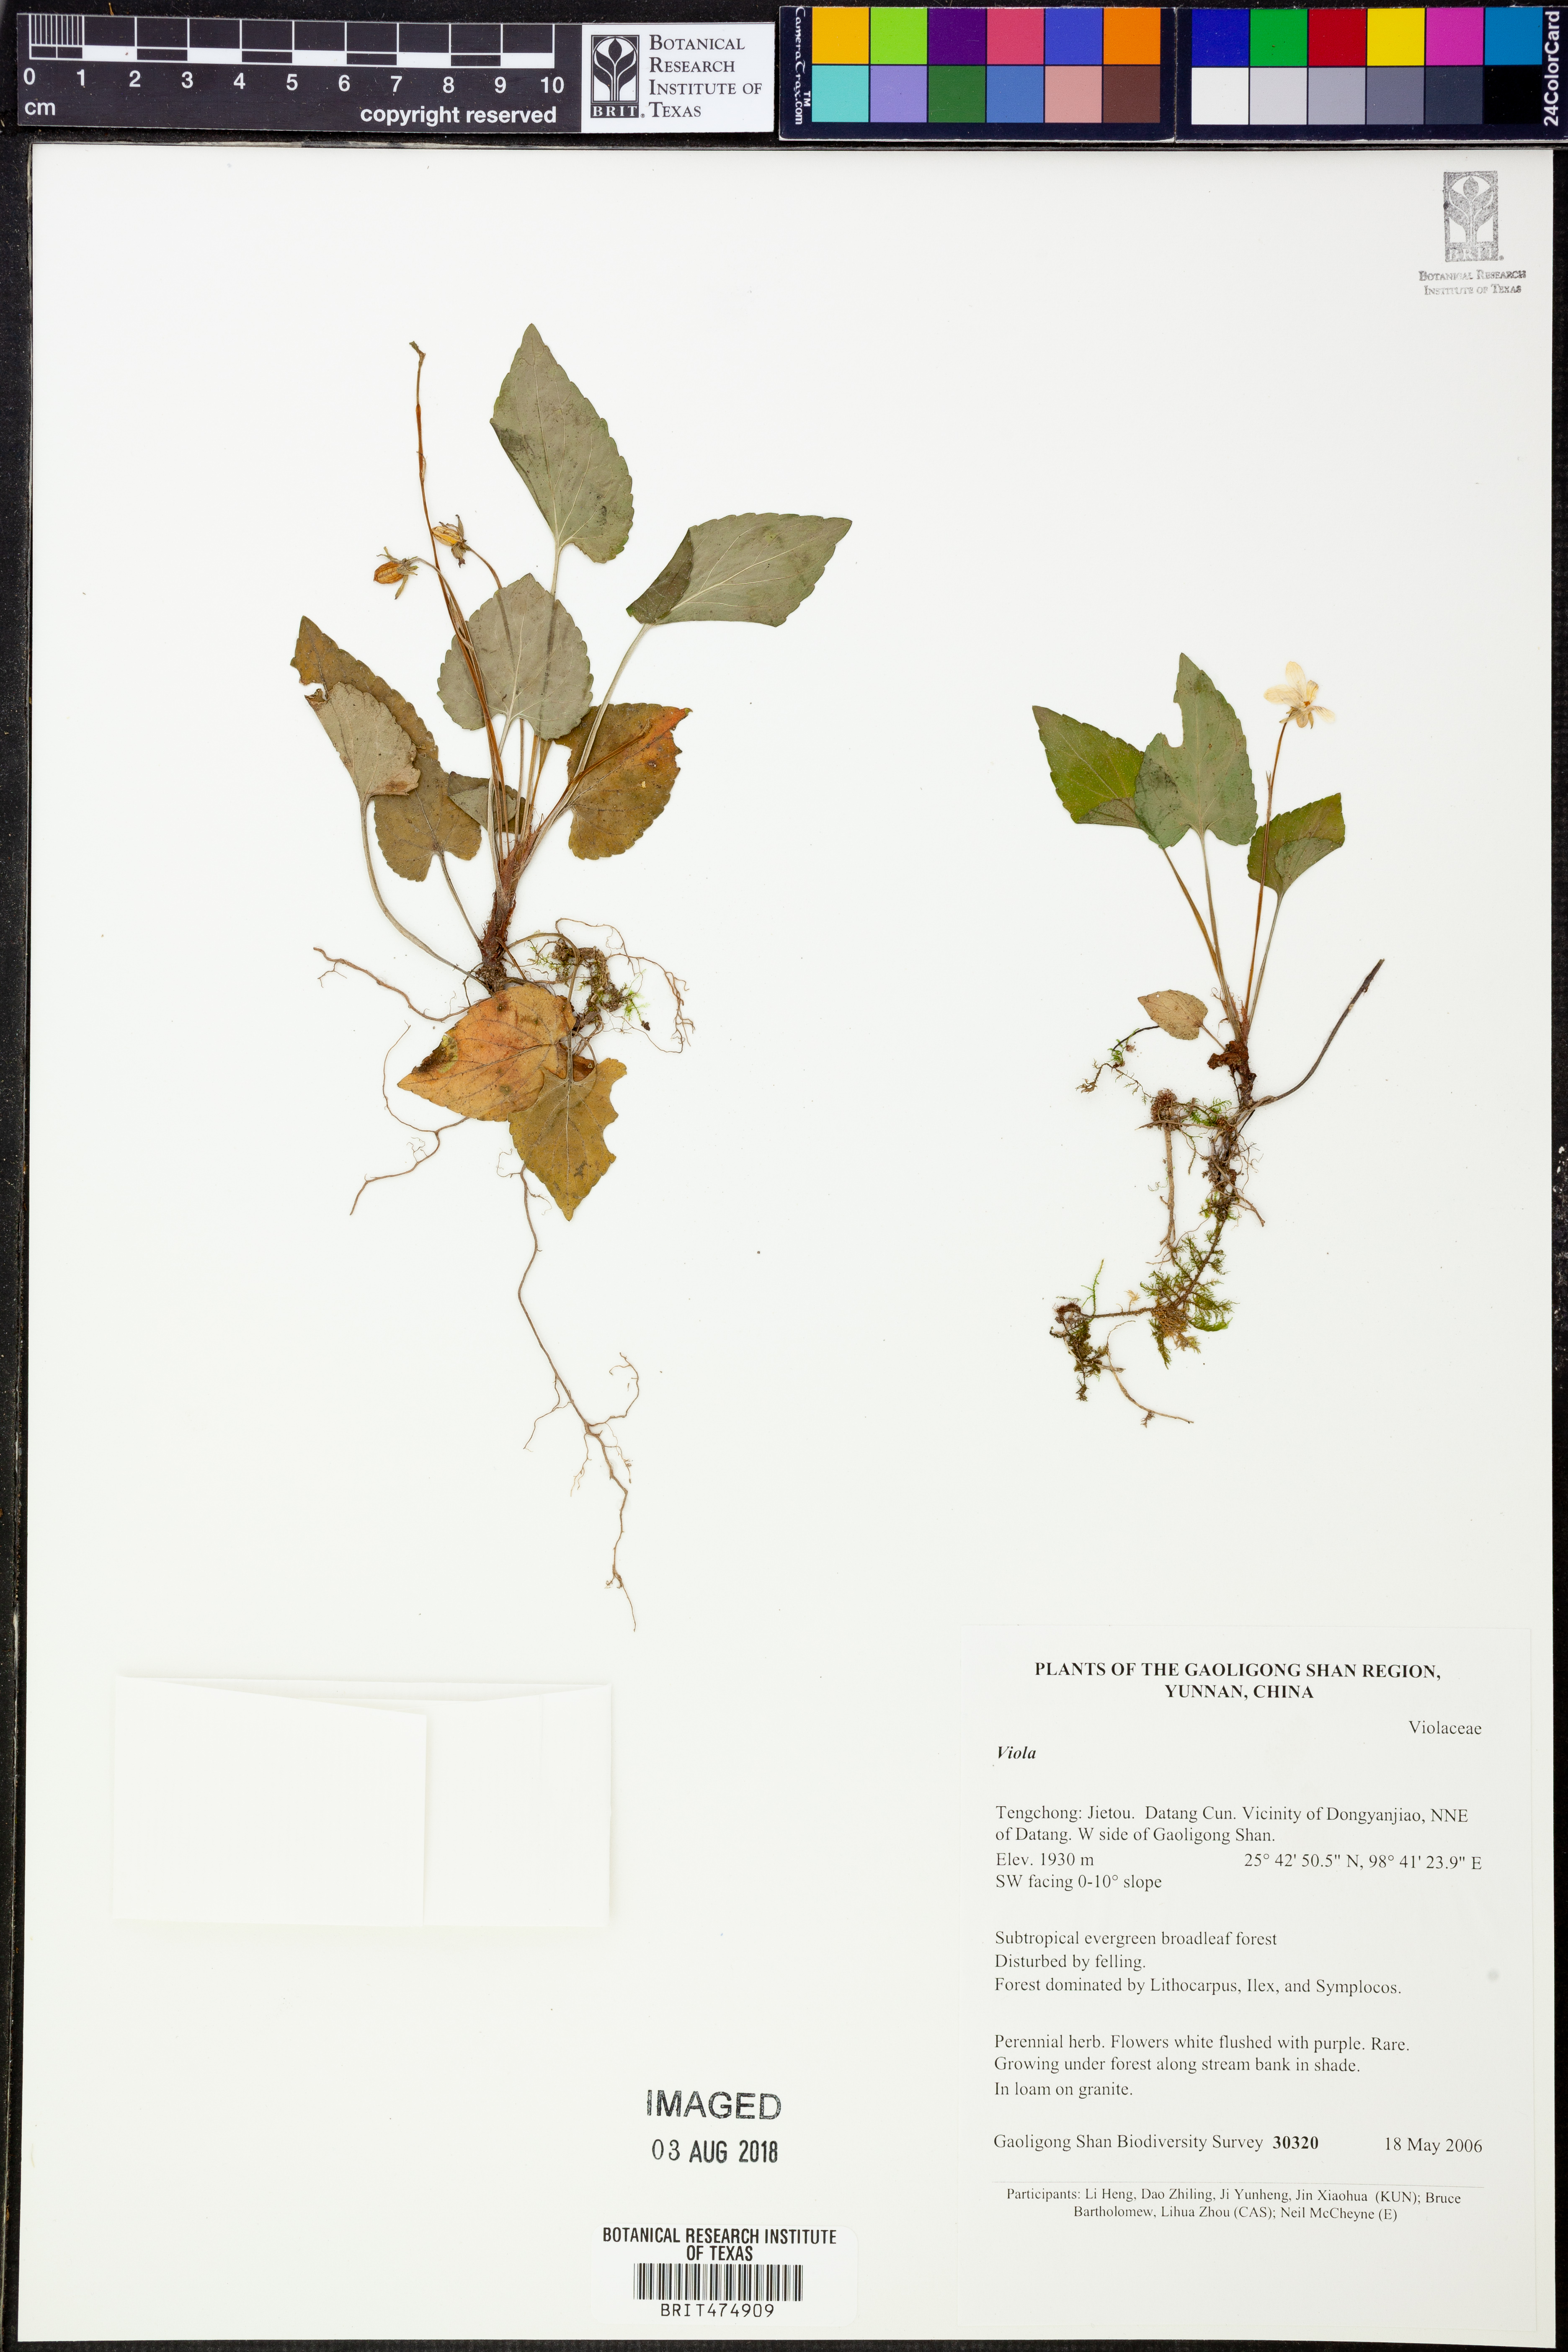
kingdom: Plantae
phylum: Tracheophyta
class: Magnoliopsida
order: Caryophyllales
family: Polygonaceae
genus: Persicaria
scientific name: Persicaria capitata
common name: Pinkhead smartweed
